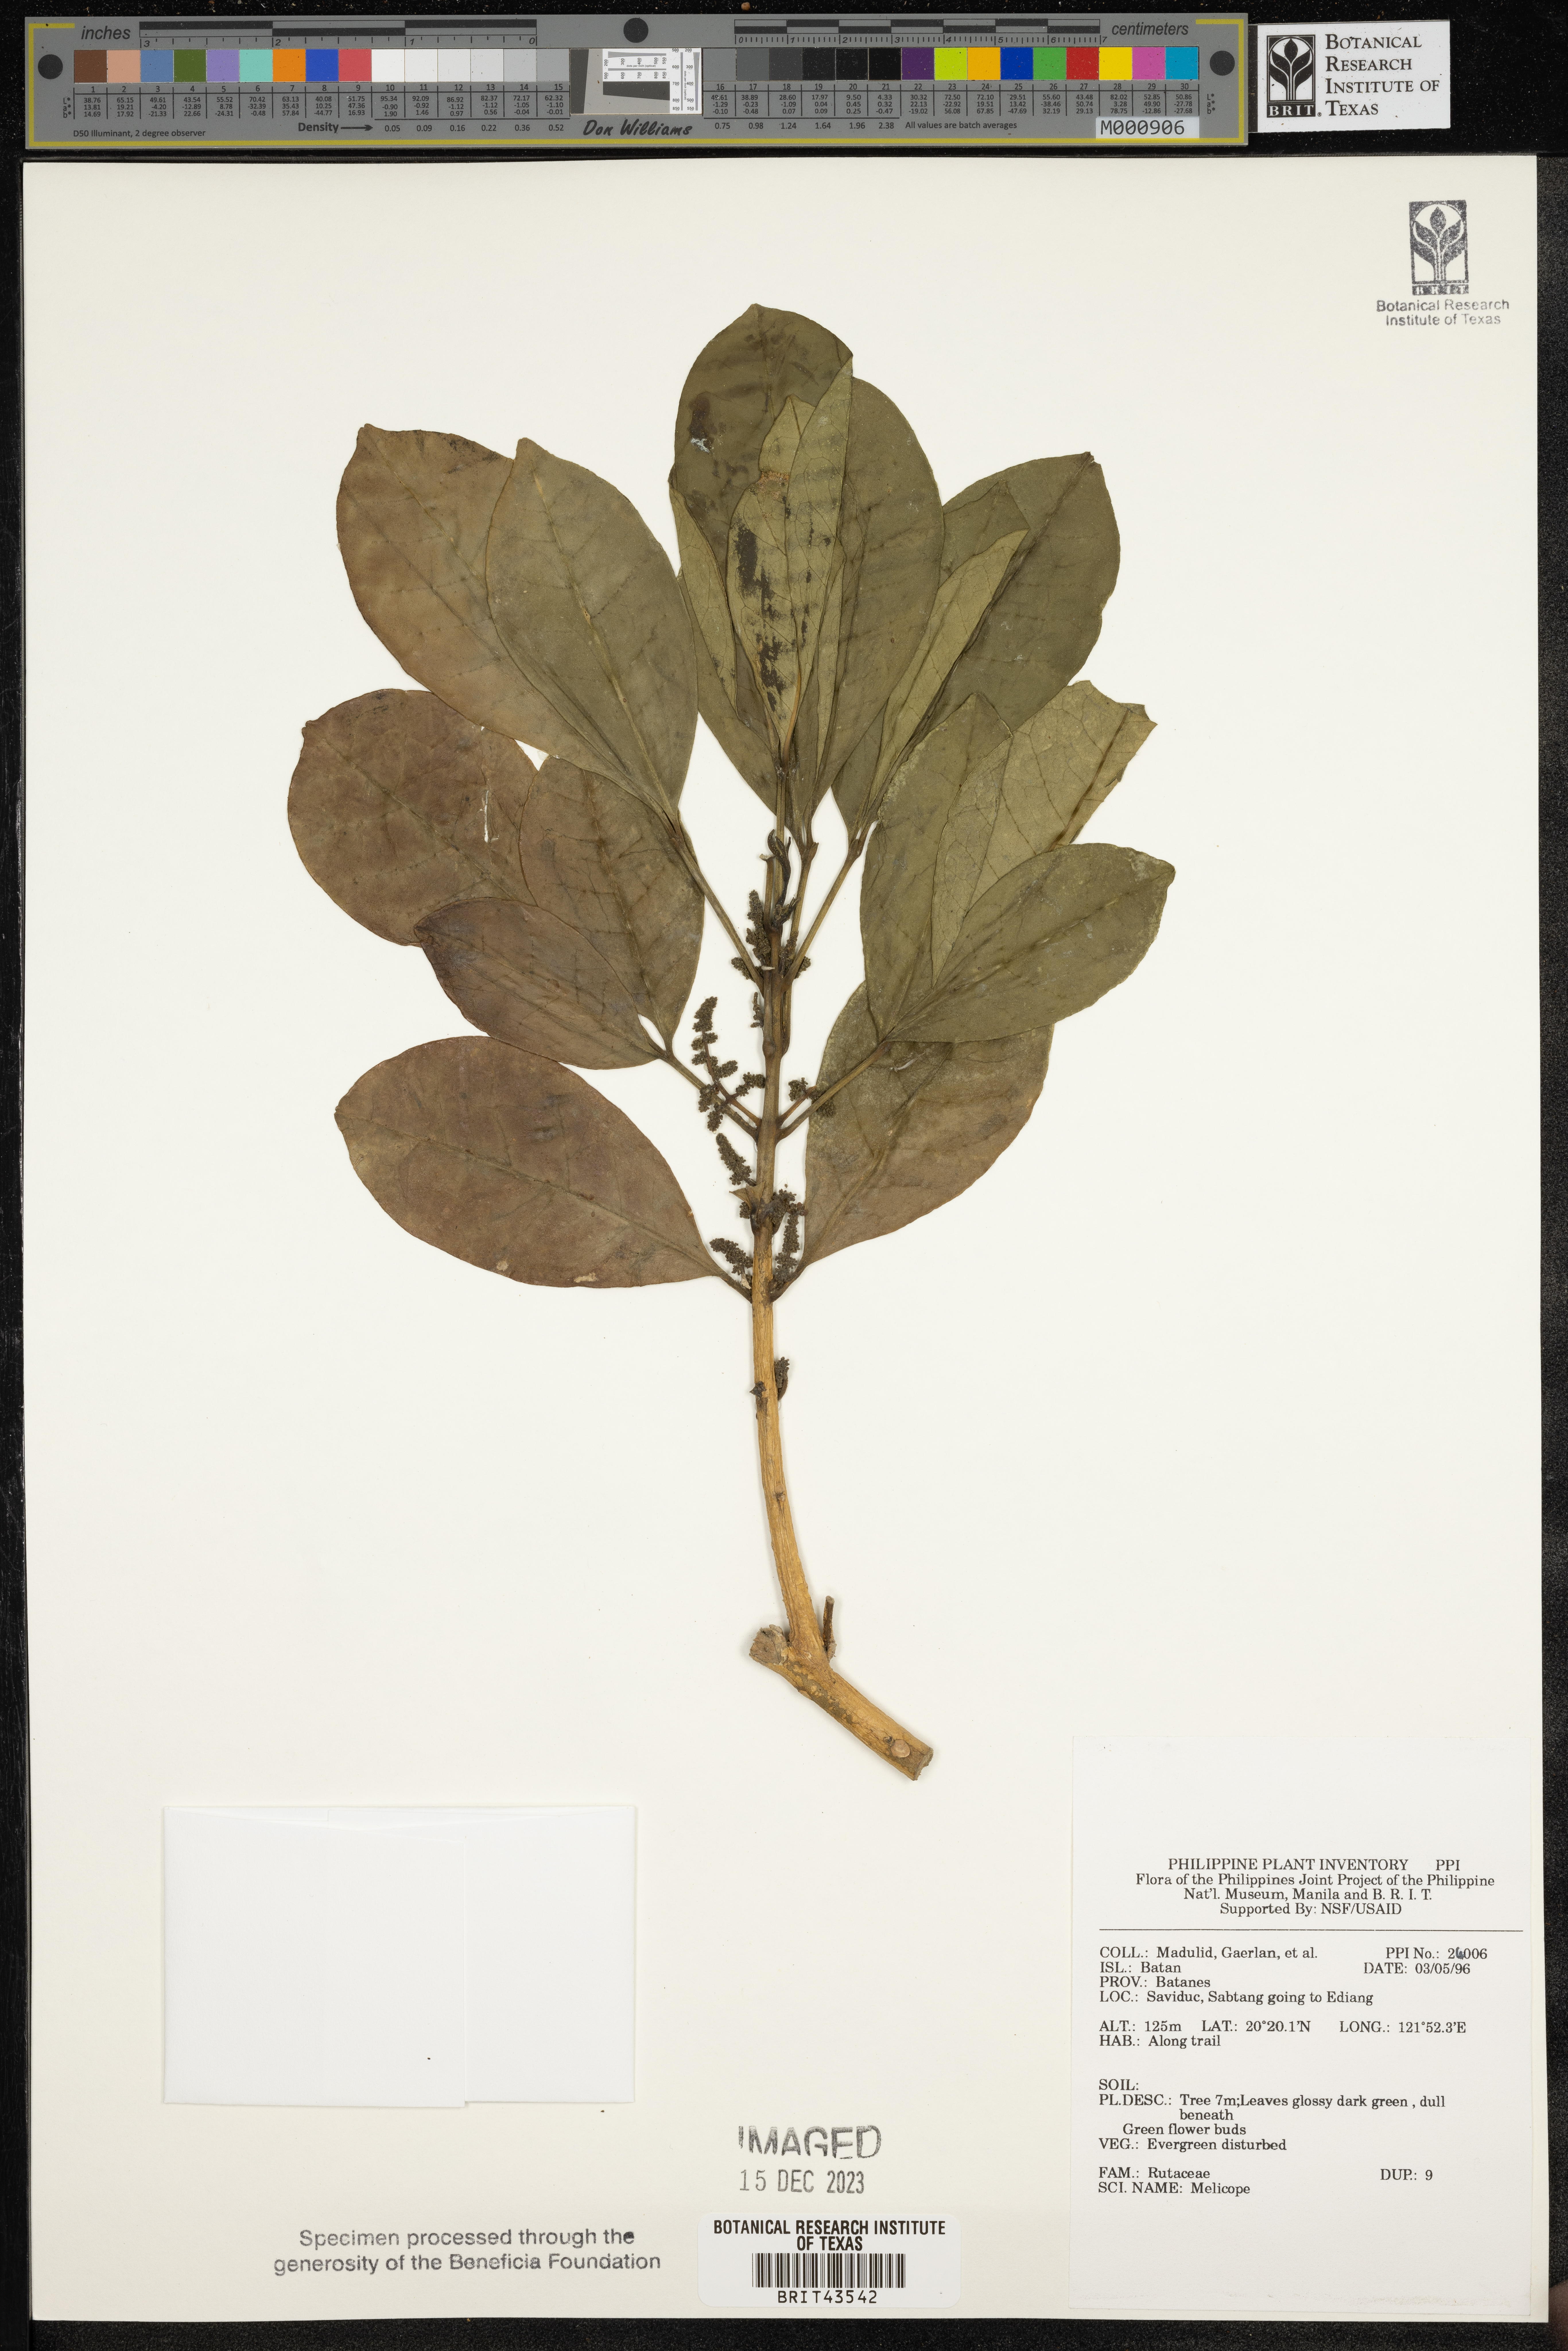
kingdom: Plantae
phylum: Tracheophyta
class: Magnoliopsida
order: Sapindales
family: Rutaceae
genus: Melicope
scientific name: Melicope
